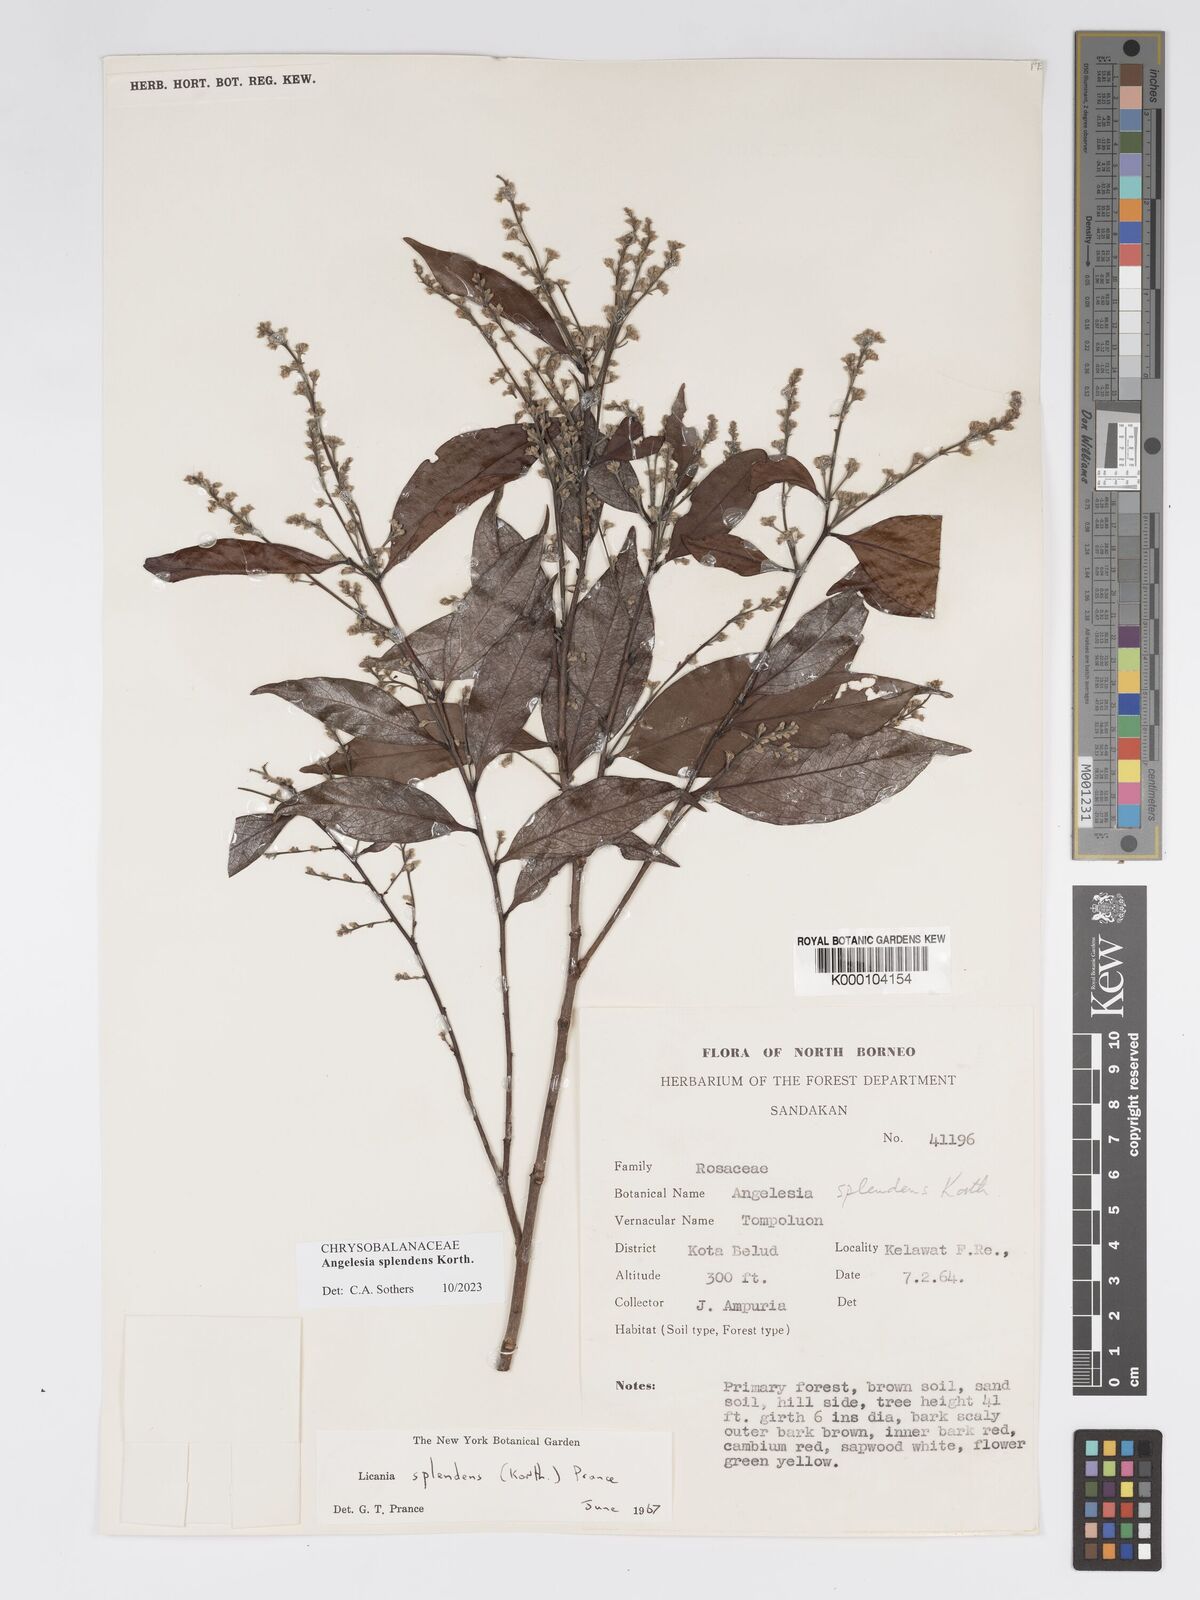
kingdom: Plantae
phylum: Tracheophyta
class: Magnoliopsida
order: Malpighiales
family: Chrysobalanaceae
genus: Angelesia
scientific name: Angelesia splendens
